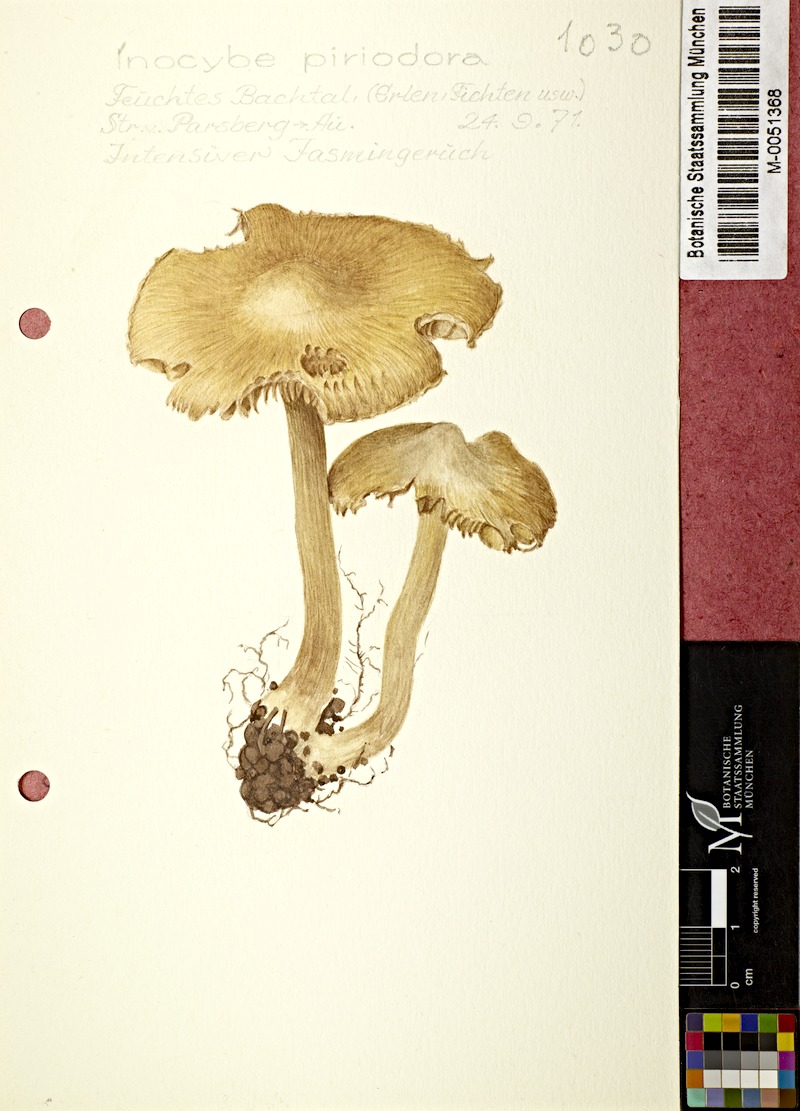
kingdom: Fungi
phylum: Basidiomycota
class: Agaricomycetes
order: Agaricales
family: Inocybaceae
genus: Inocybe
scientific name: Inocybe fraudans
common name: Pear fibrecap
